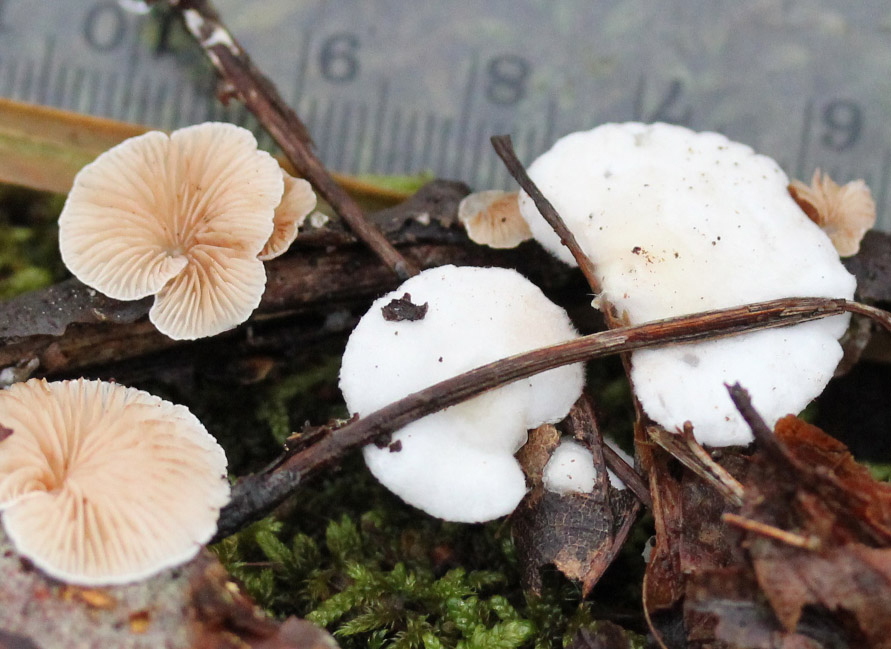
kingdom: Fungi
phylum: Basidiomycota
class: Agaricomycetes
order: Agaricales
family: Crepidotaceae
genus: Crepidotus
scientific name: Crepidotus variabilis
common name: forskelligformet muslingesvamp
